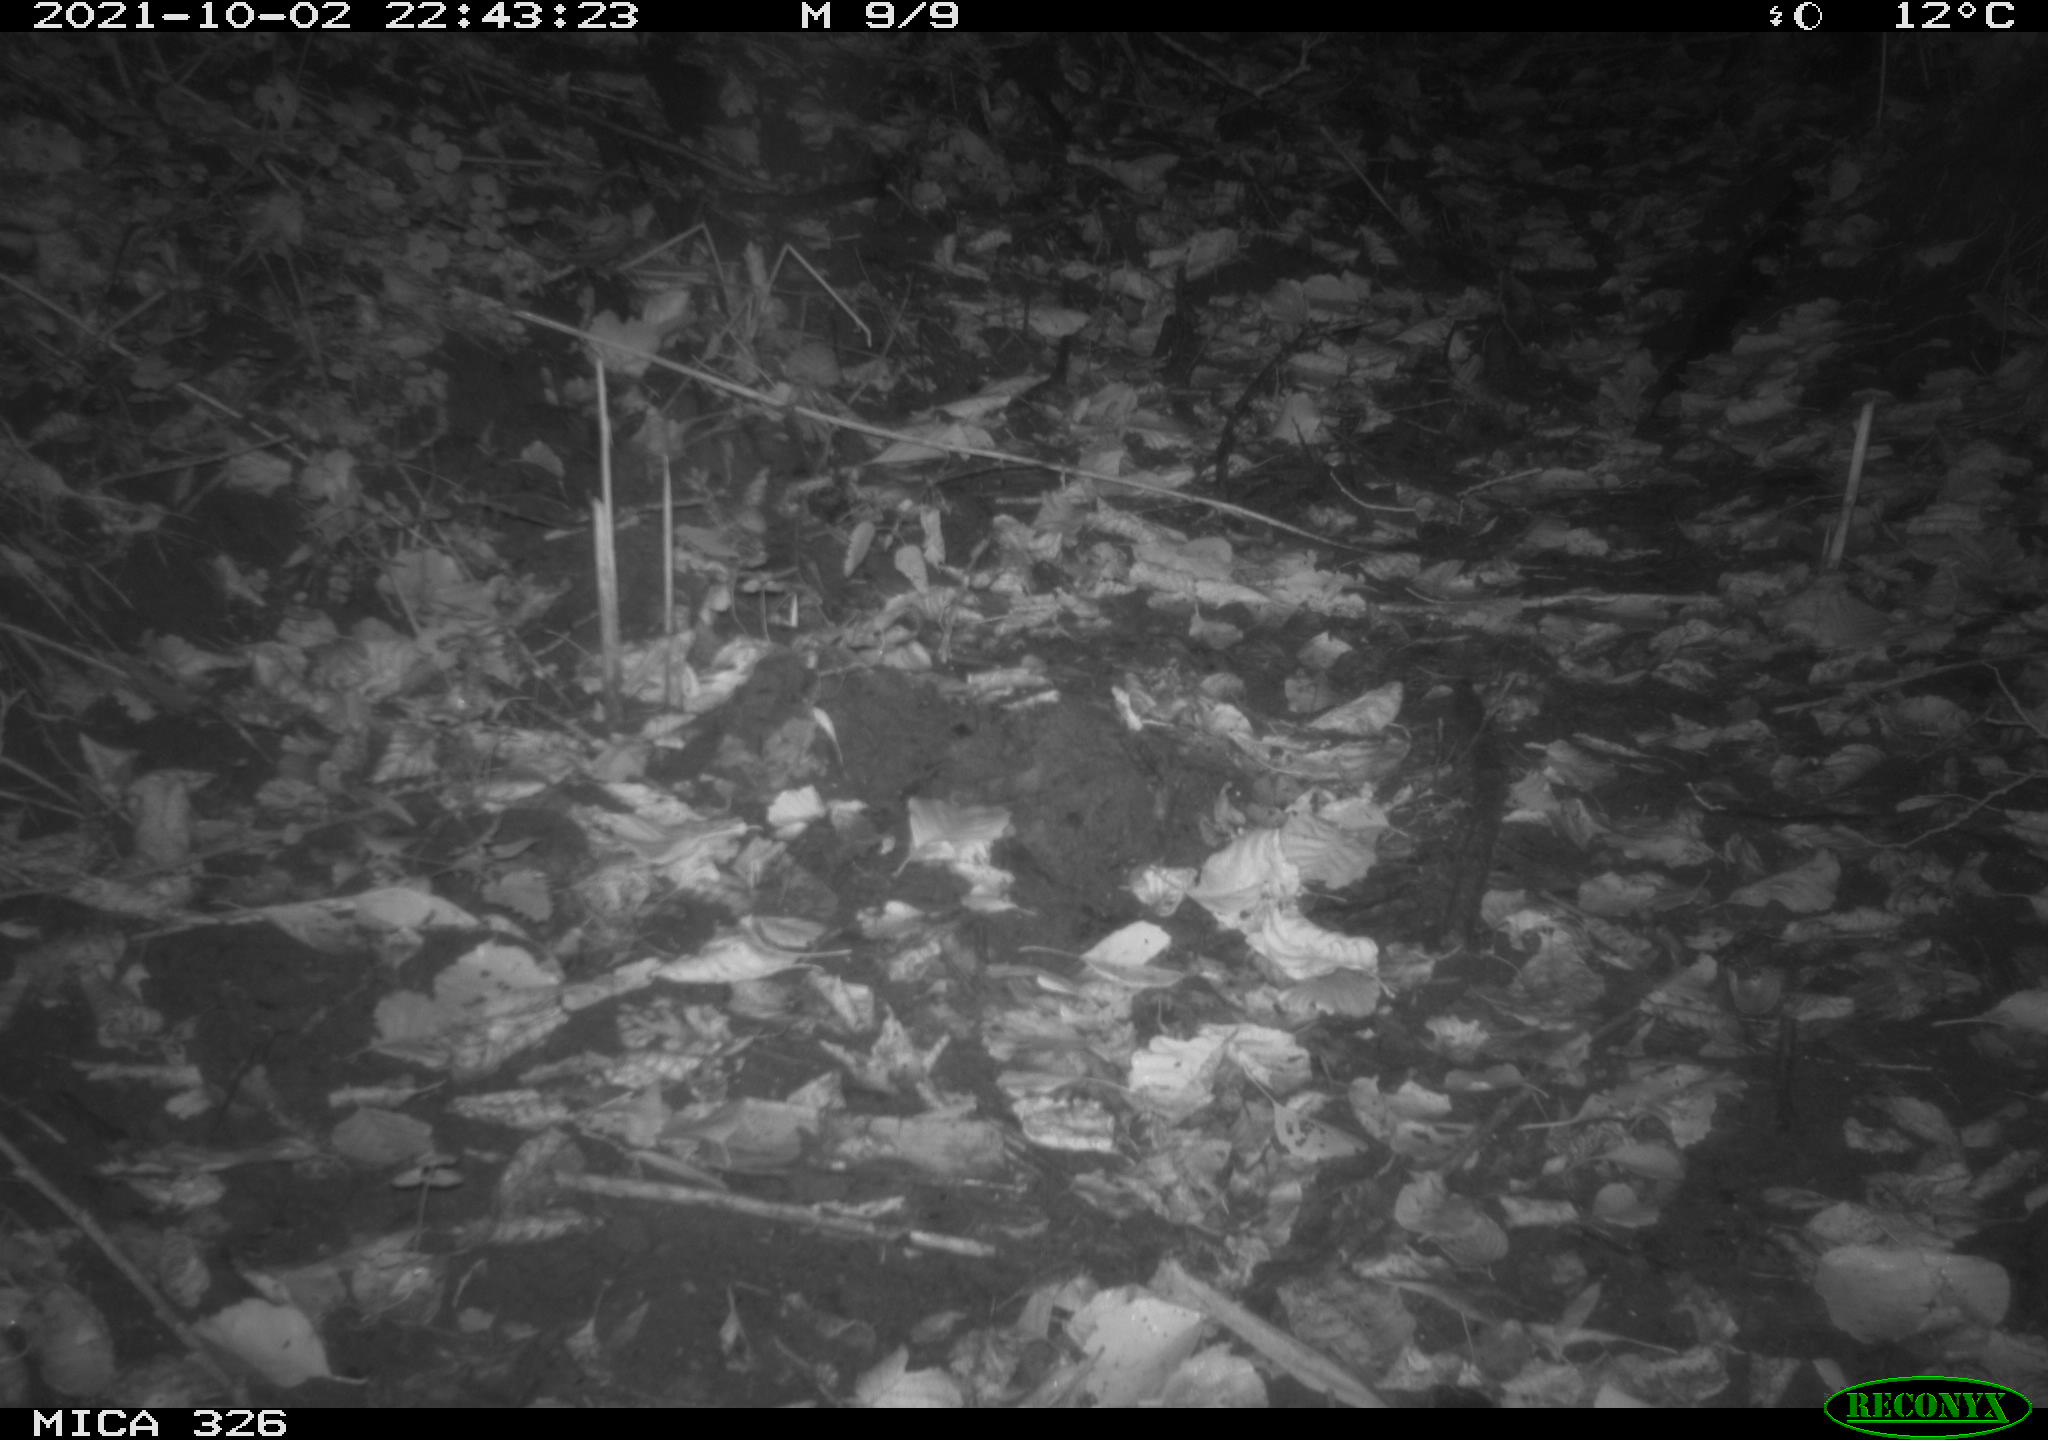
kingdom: Animalia
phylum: Chordata
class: Mammalia
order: Rodentia
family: Myocastoridae
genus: Myocastor
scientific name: Myocastor coypus
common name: Coypu
